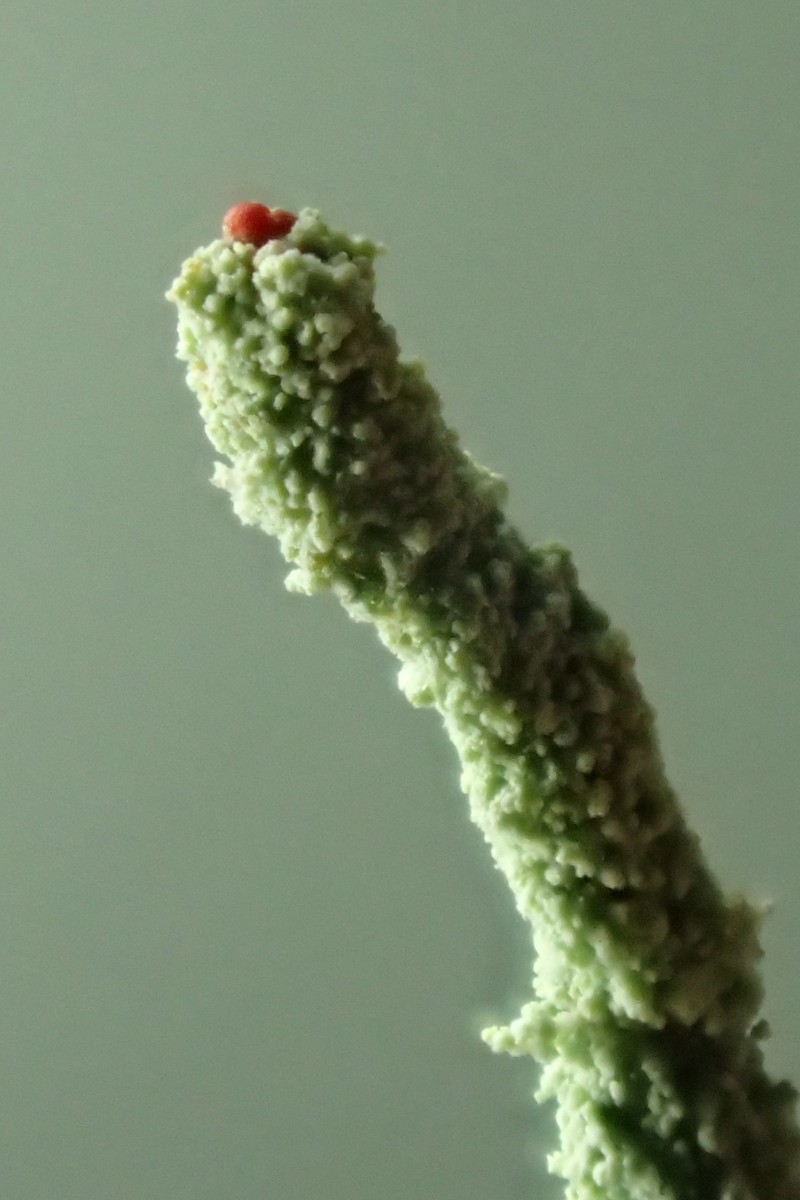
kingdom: Fungi
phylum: Ascomycota
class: Lecanoromycetes
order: Lecanorales
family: Cladoniaceae
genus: Cladonia
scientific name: Cladonia polydactyla
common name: vifte-bægerlav
